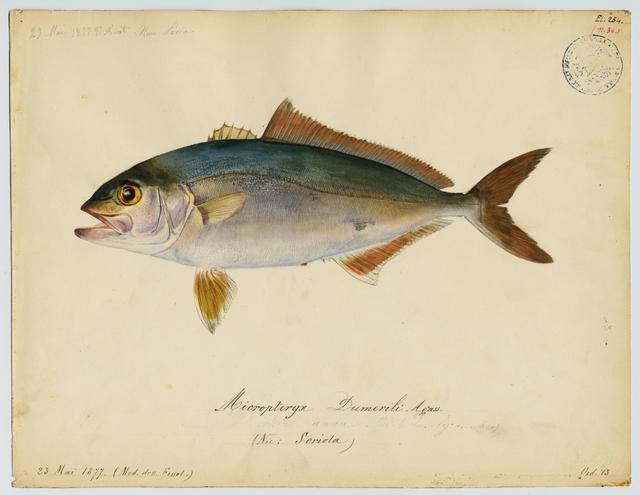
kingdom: Animalia
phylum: Chordata
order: Perciformes
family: Carangidae
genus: Seriola
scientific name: Seriola dumerili
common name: Greater amberjack
